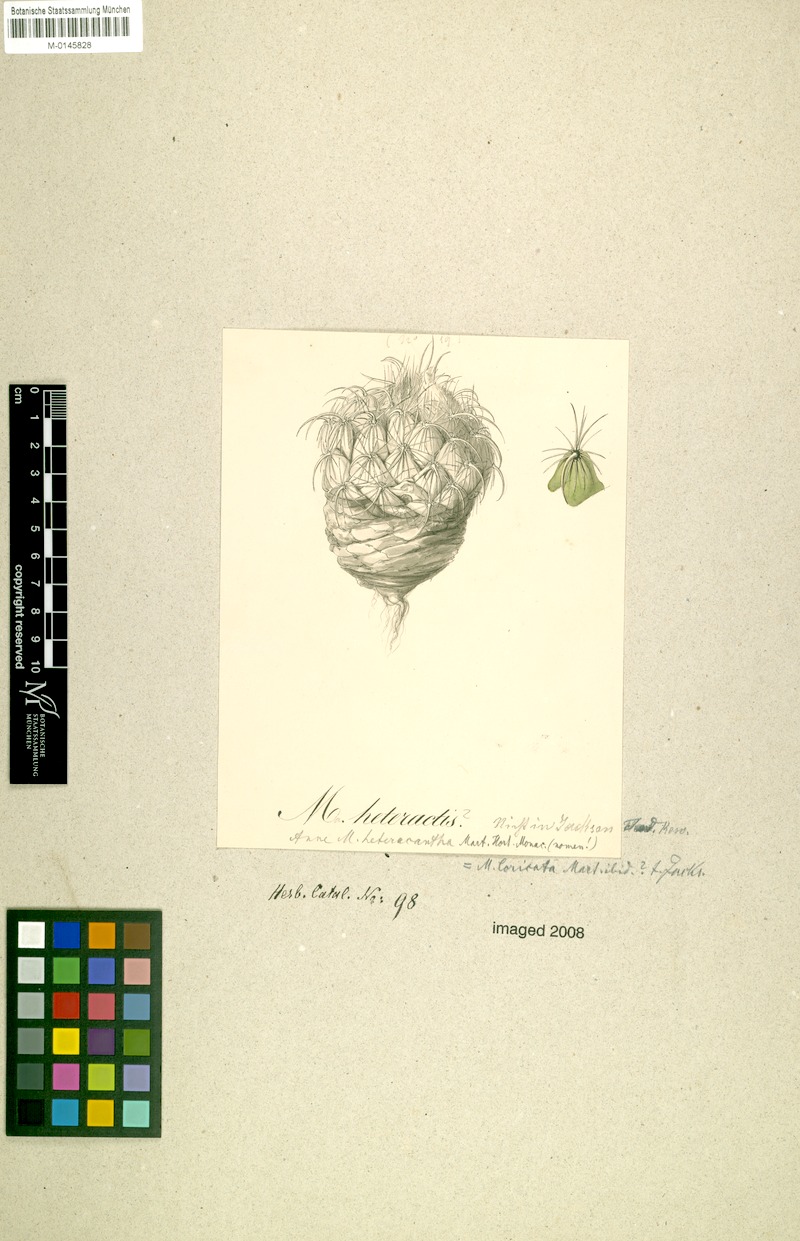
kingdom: Plantae
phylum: Tracheophyta
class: Magnoliopsida
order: Caryophyllales
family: Cactaceae
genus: Coryphantha
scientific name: Coryphantha pallida
